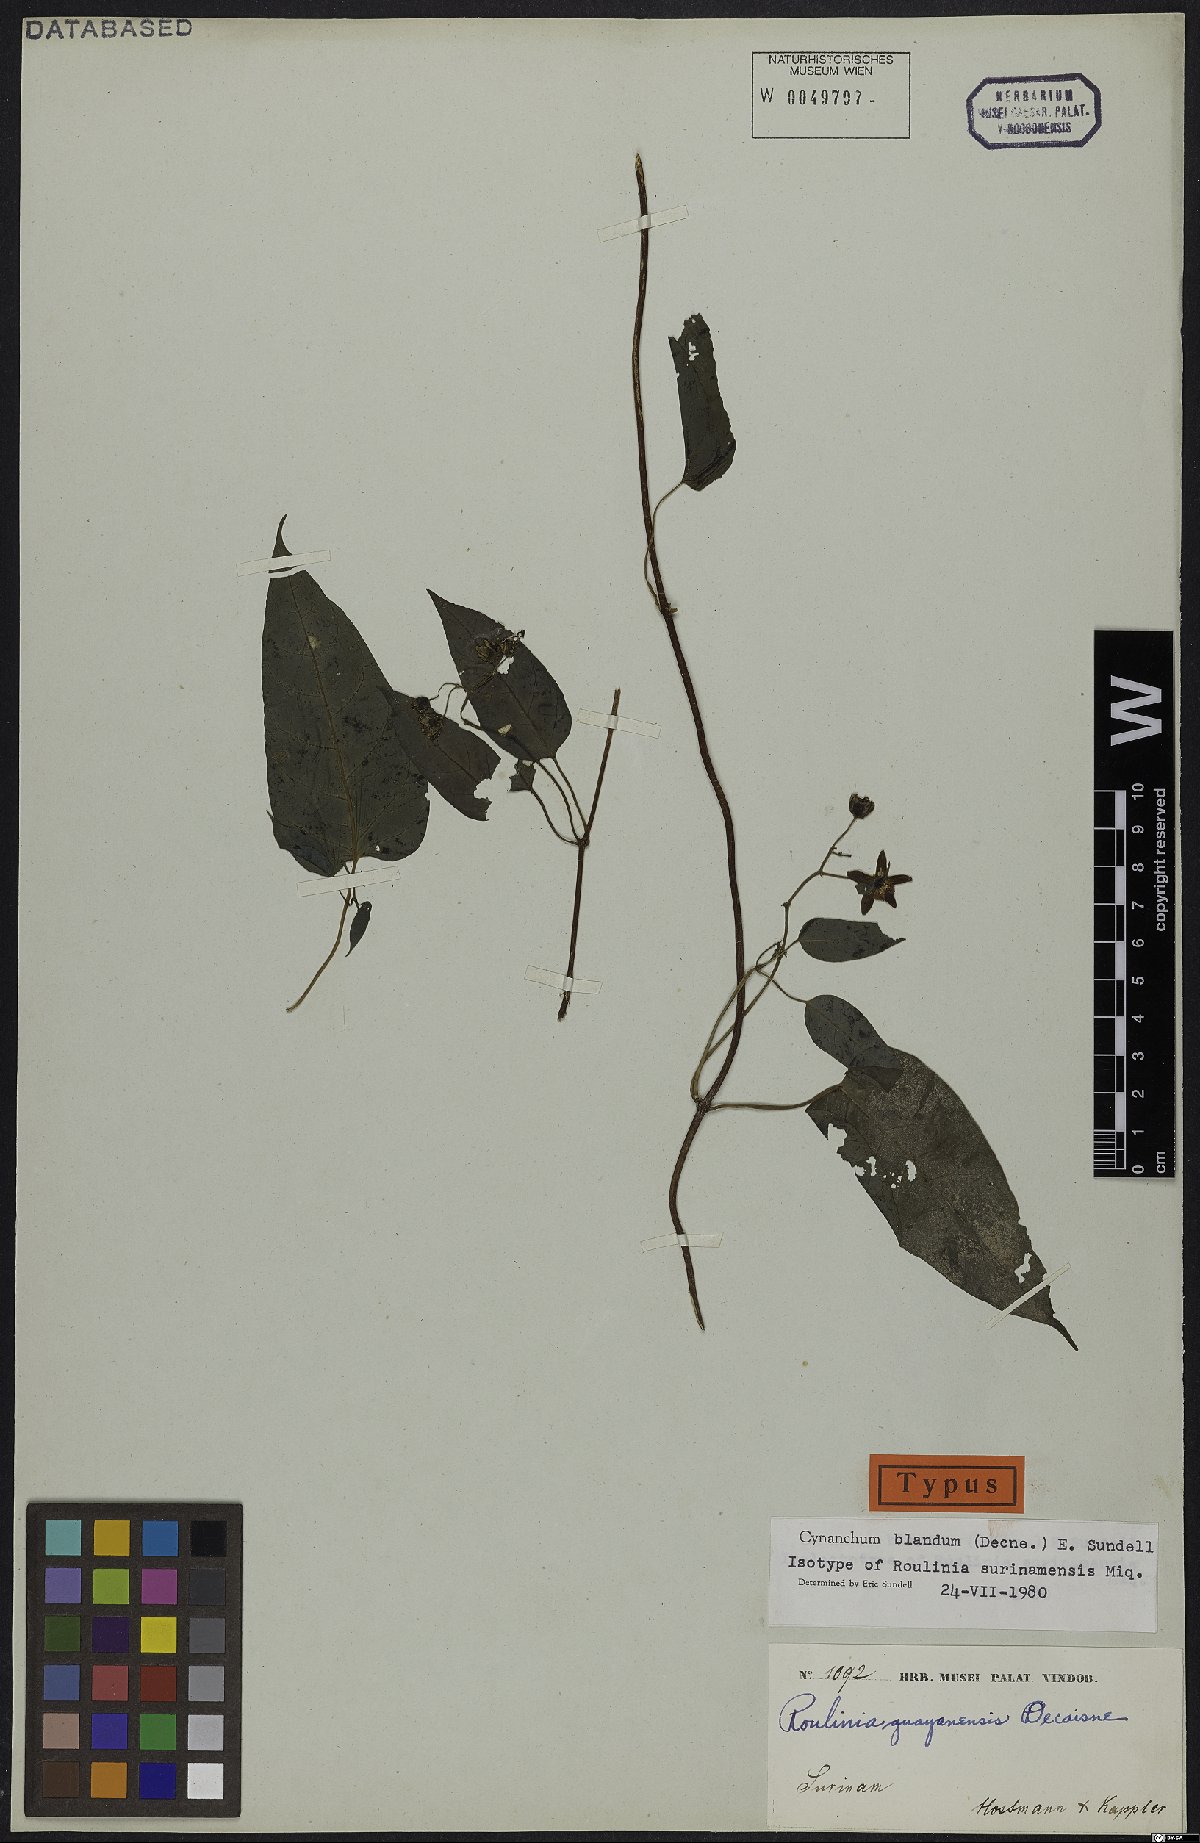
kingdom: Plantae
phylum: Tracheophyta
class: Magnoliopsida
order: Gentianales
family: Apocynaceae
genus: Cynanchum
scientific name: Cynanchum blandum
